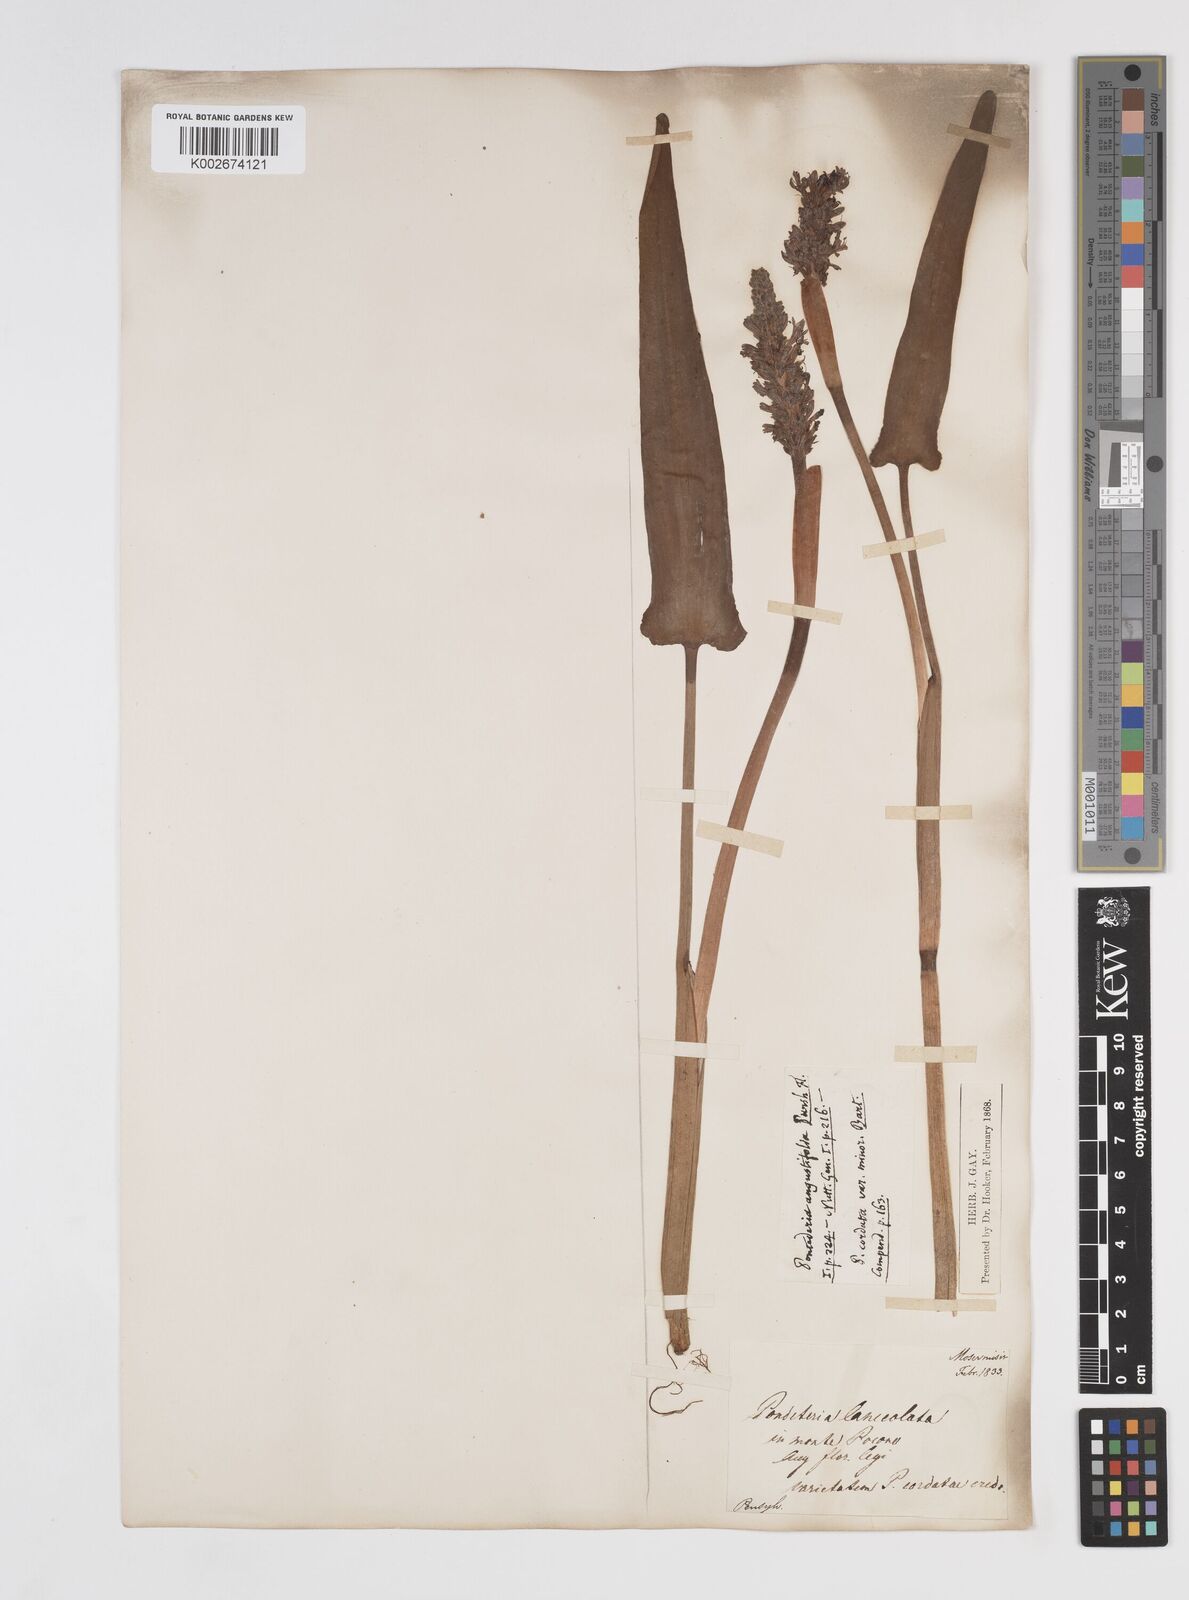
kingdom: Plantae
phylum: Tracheophyta
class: Liliopsida
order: Commelinales
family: Pontederiaceae
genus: Pontederia
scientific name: Pontederia cordata
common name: Pickerelweed
